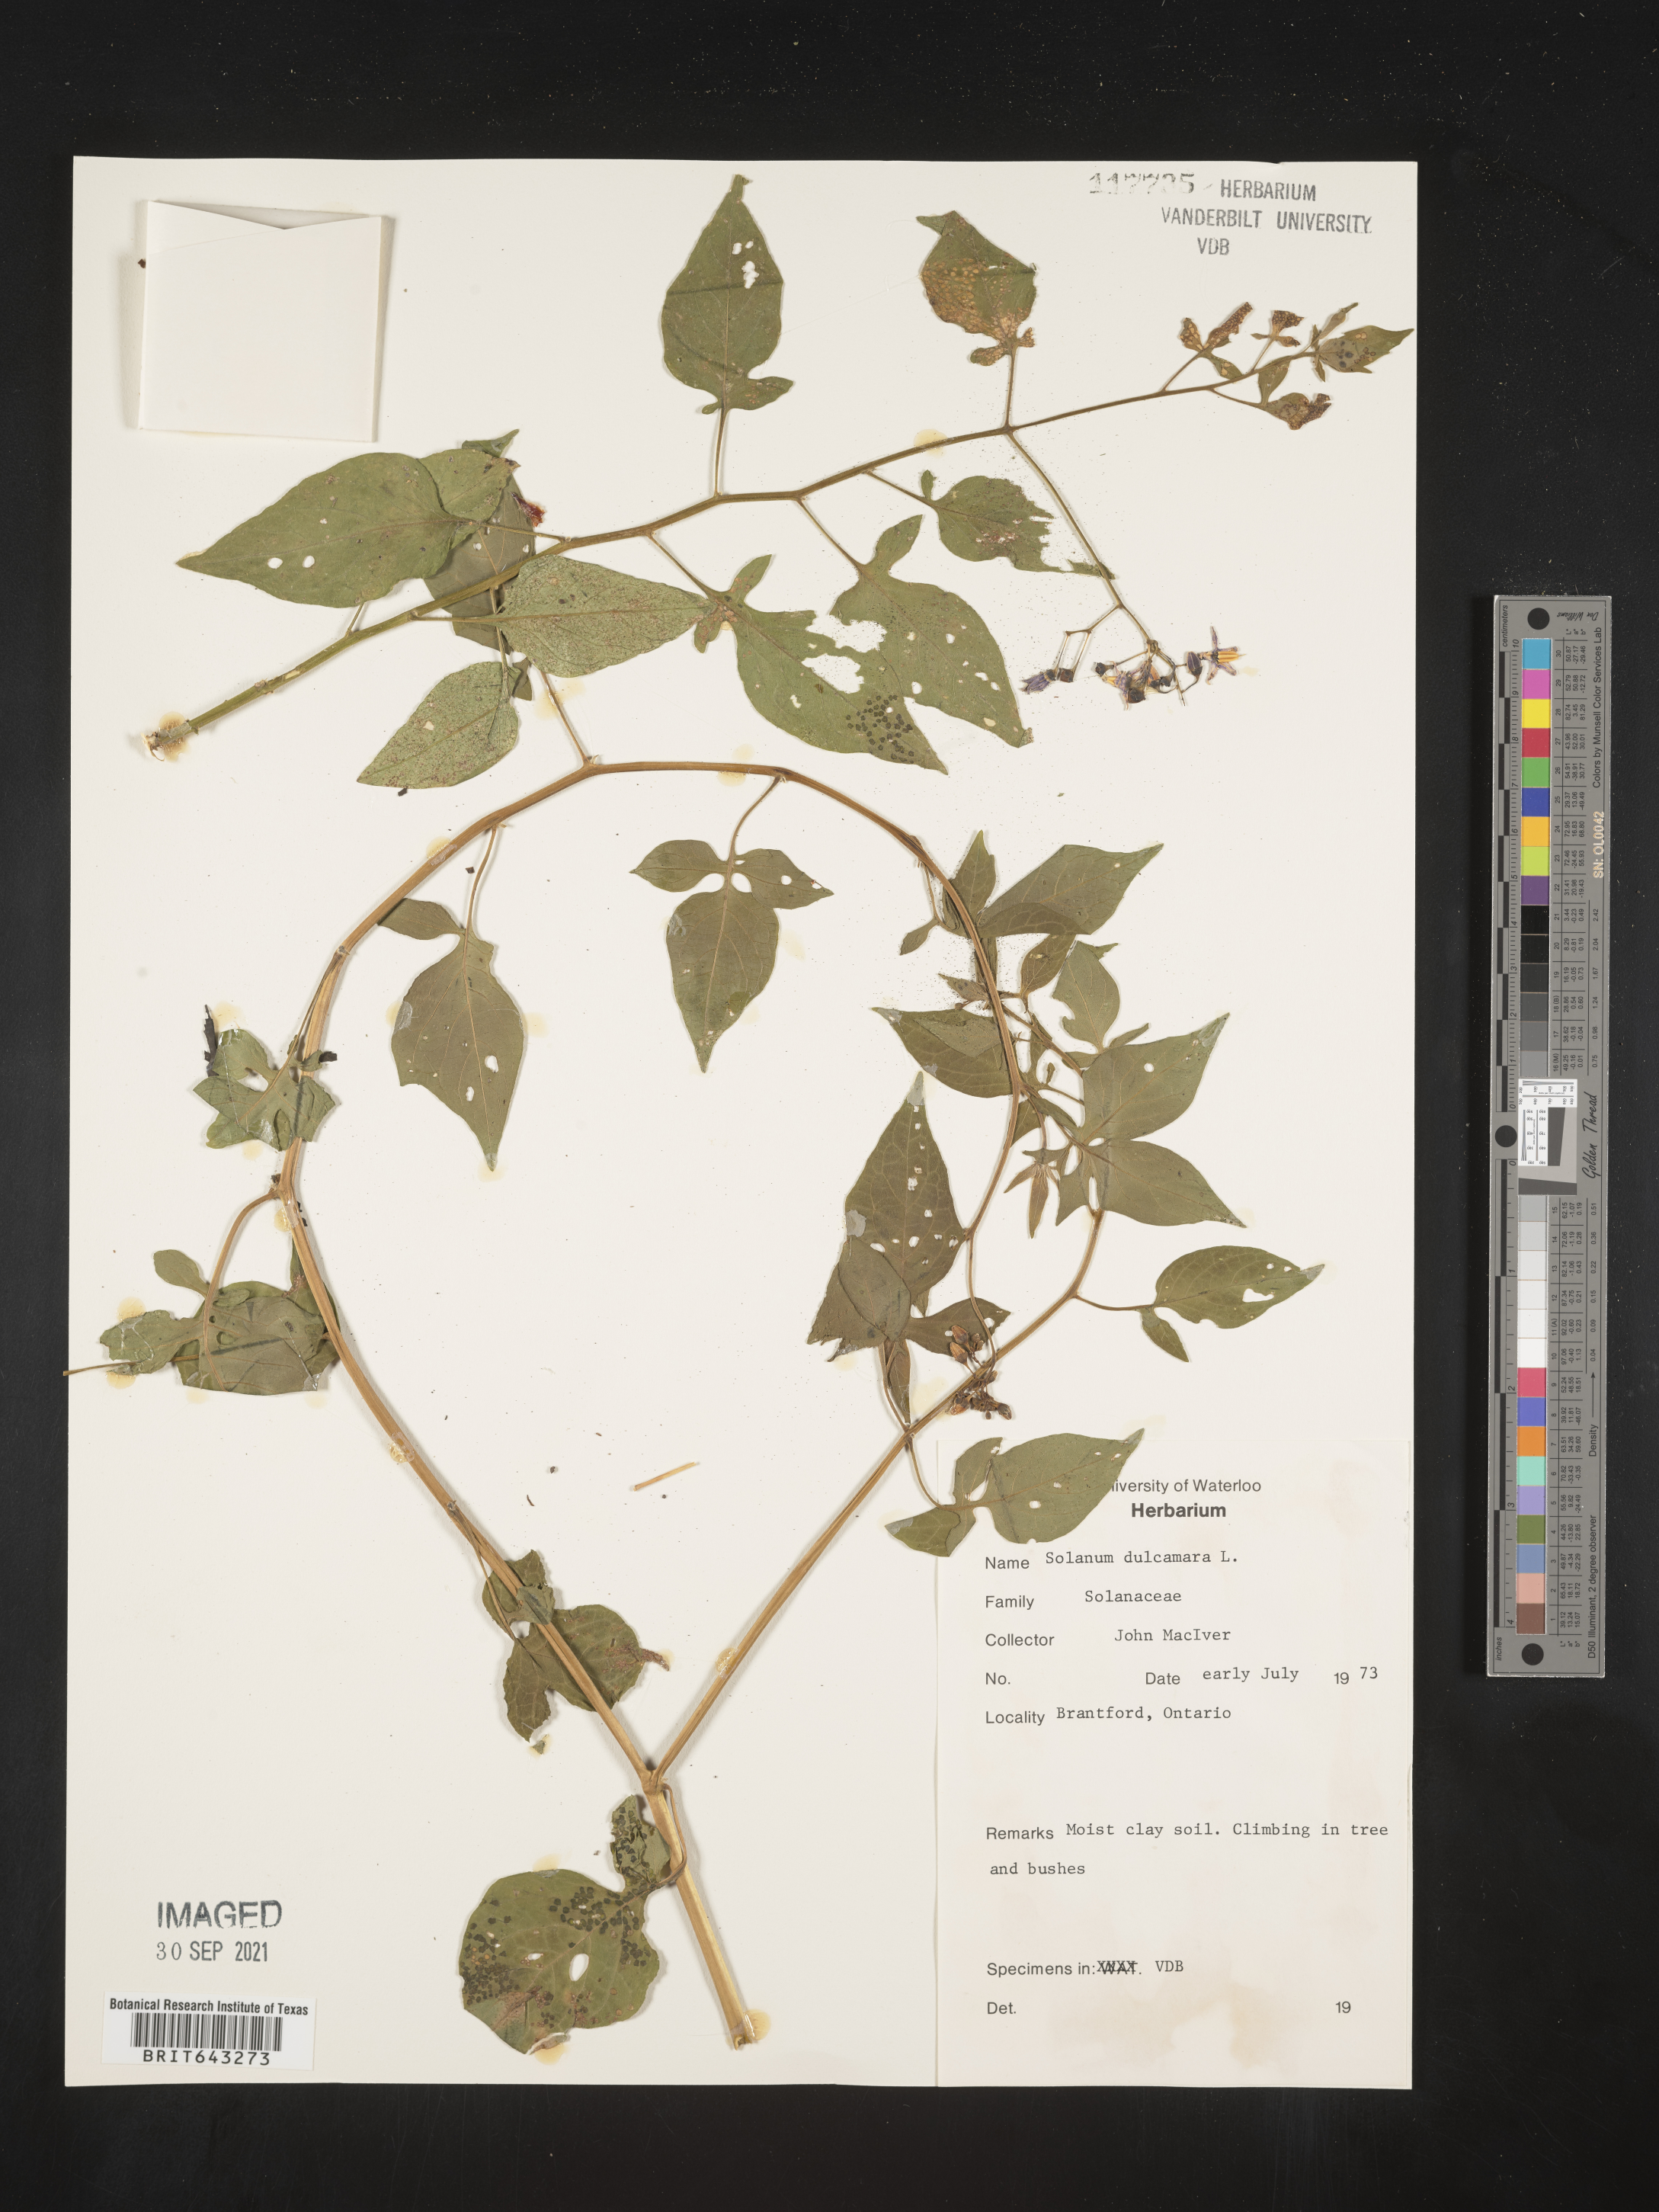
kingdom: Plantae
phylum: Tracheophyta
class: Magnoliopsida
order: Solanales
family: Solanaceae
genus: Solanum
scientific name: Solanum
